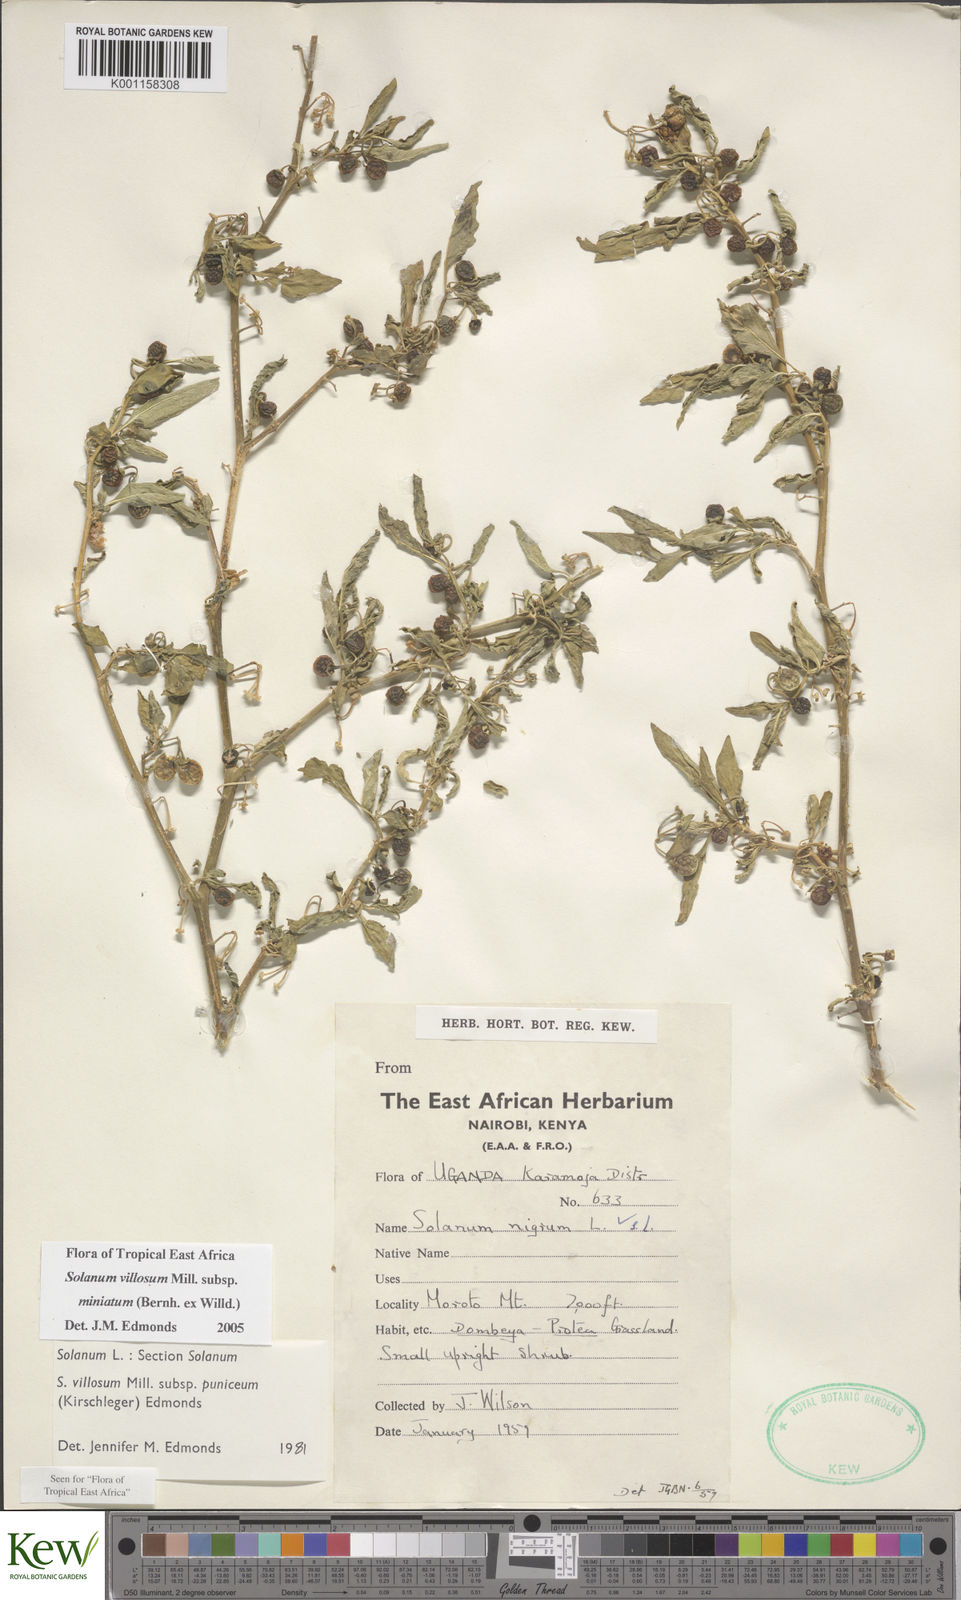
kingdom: Plantae
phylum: Tracheophyta
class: Magnoliopsida
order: Solanales
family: Solanaceae
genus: Solanum
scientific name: Solanum villosum
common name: Red nightshade
